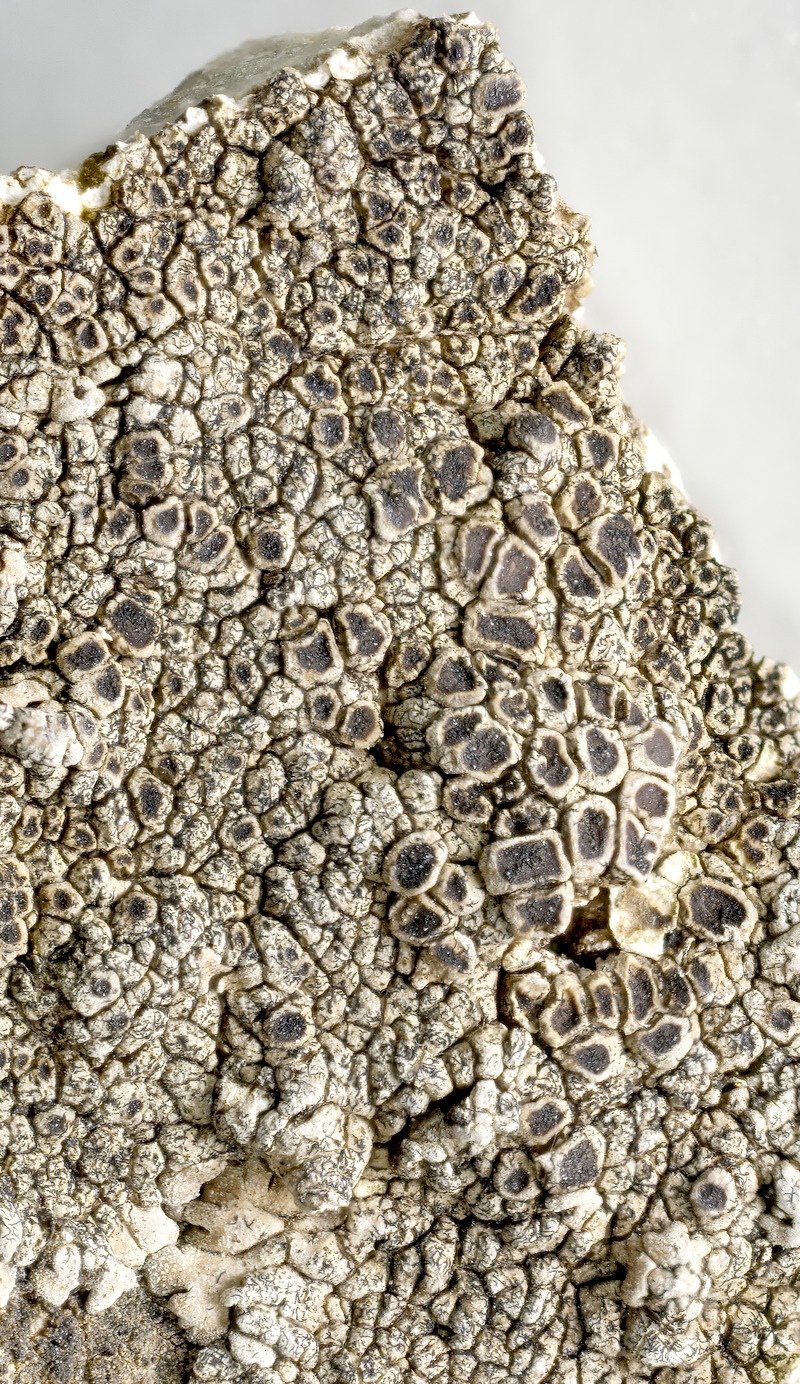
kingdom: Fungi
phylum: Ascomycota
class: Arthoniomycetes
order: Lichenostigmatales
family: Phaeococcomycetaceae
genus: Lichenostigma
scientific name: Lichenostigma elongatum
